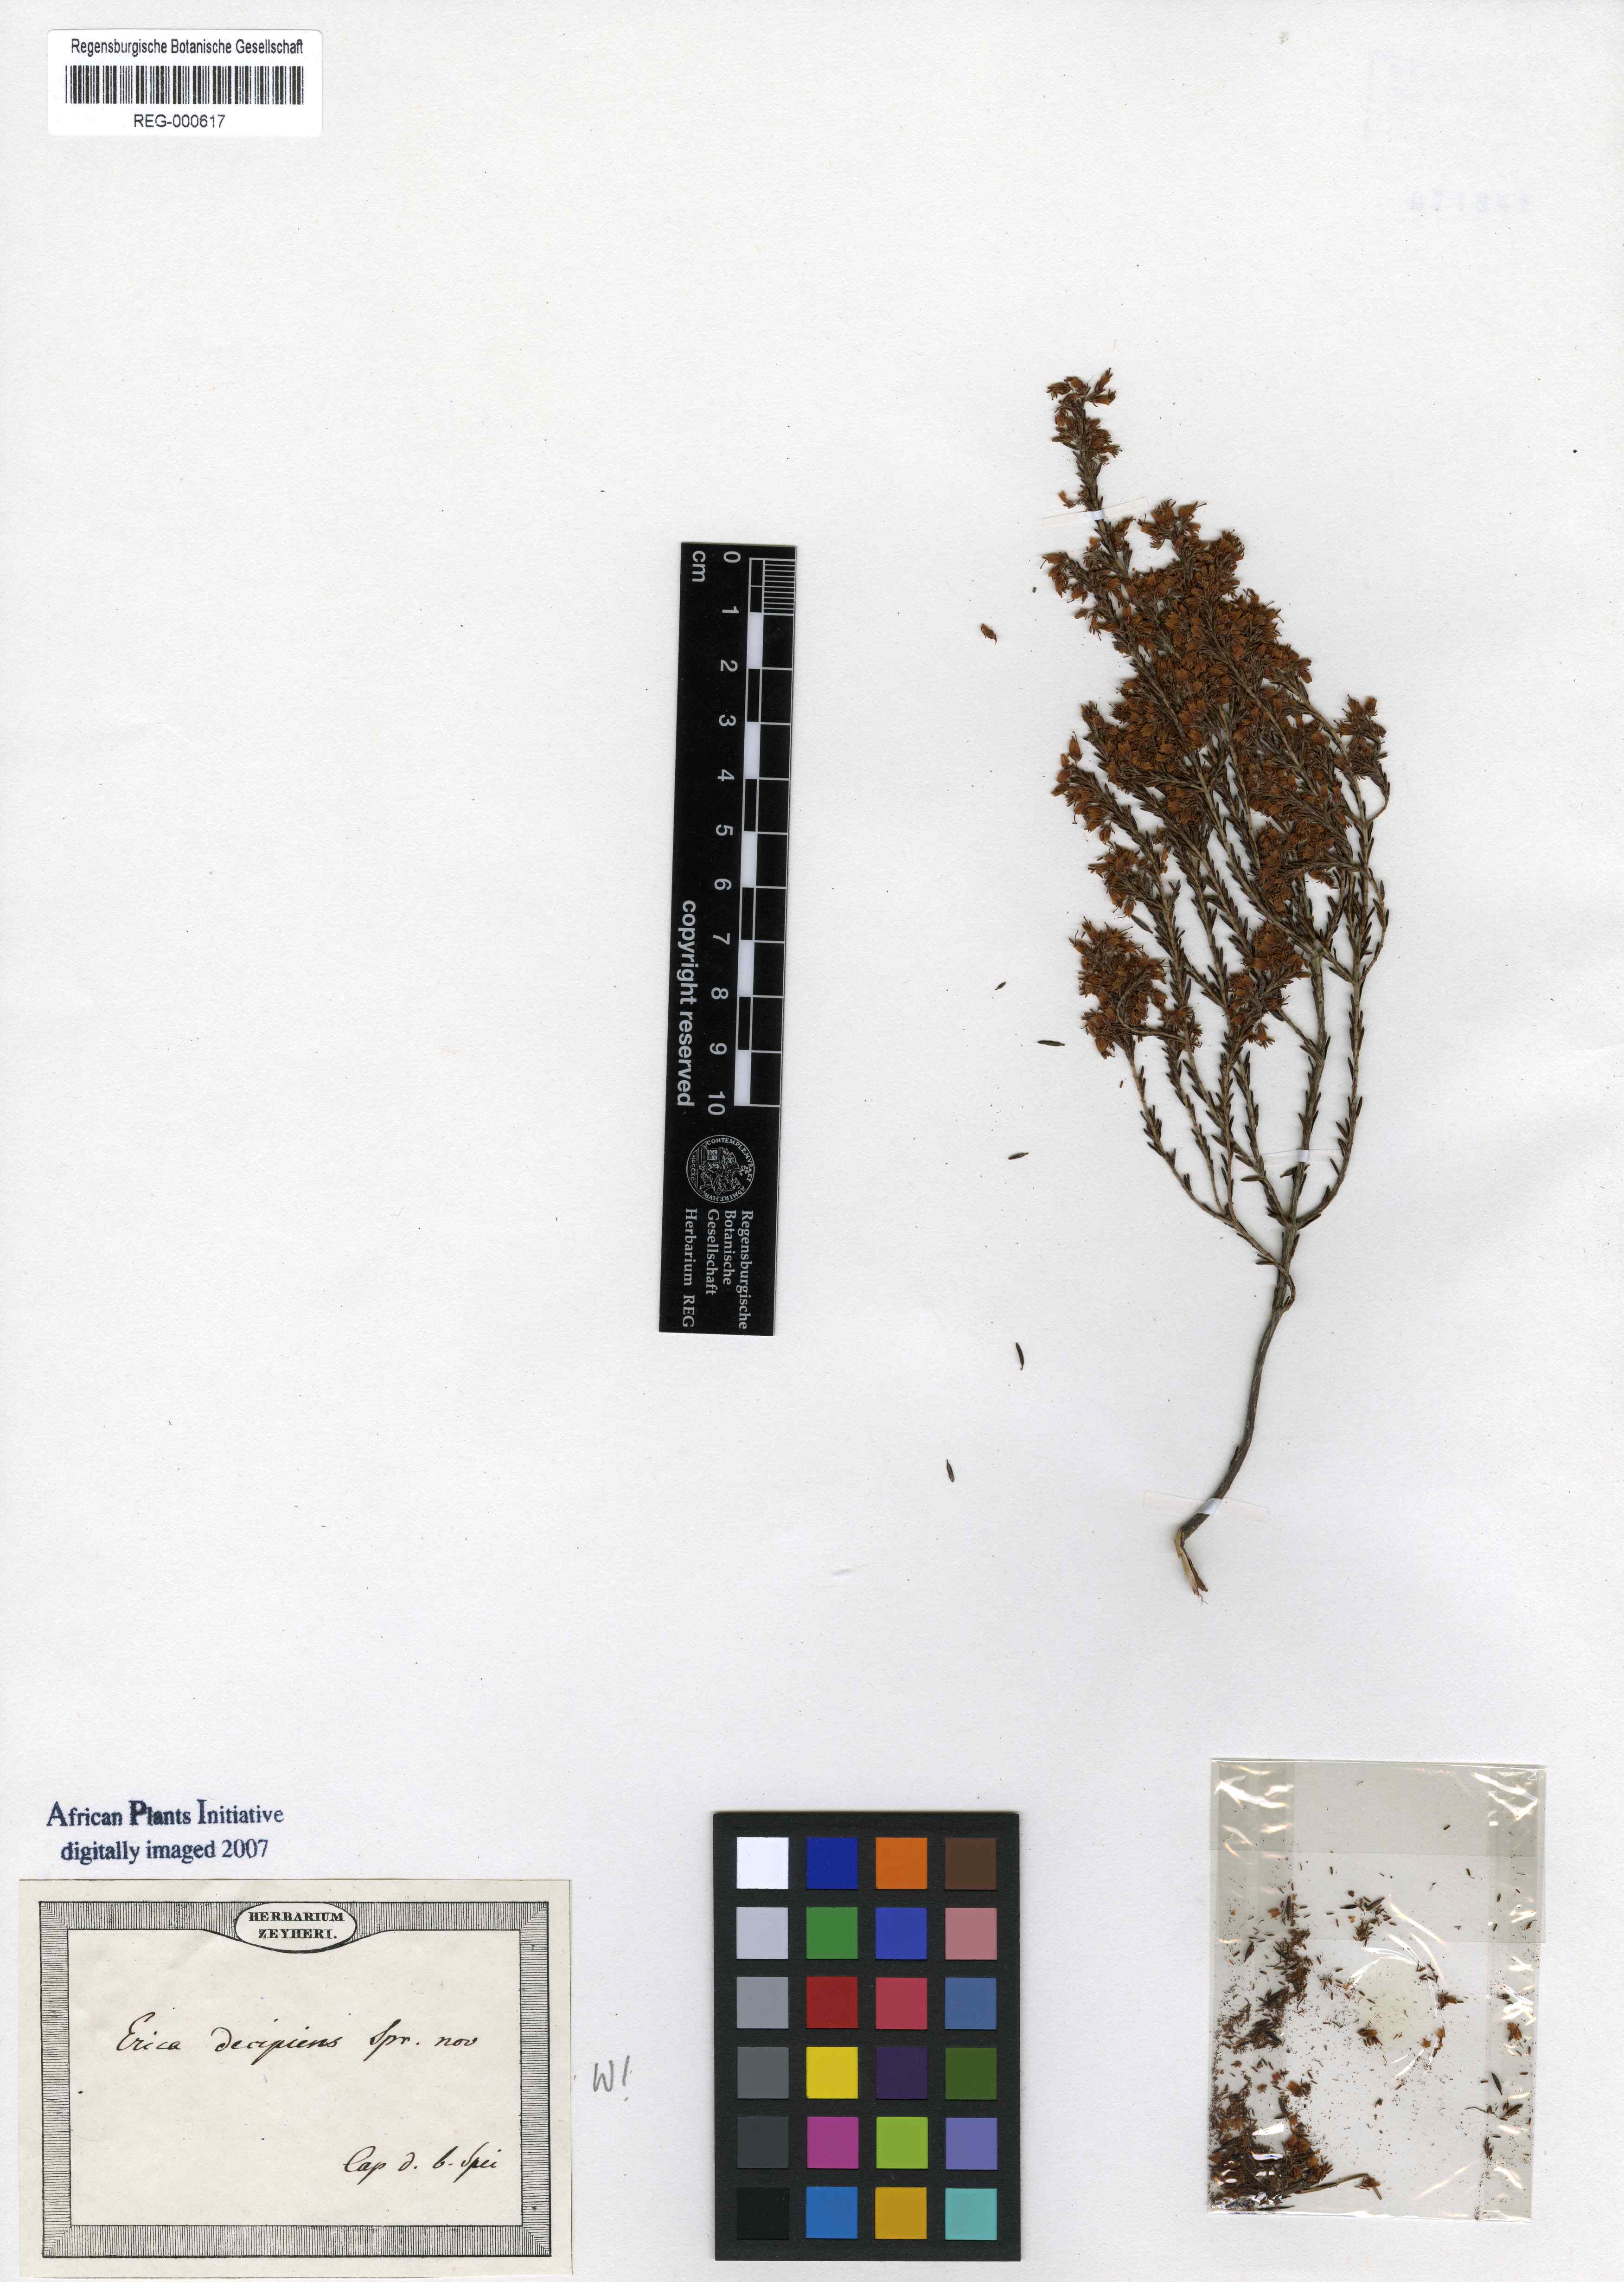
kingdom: Plantae
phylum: Tracheophyta
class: Magnoliopsida
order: Ericales
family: Ericaceae
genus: Erica
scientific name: Erica trivialis
